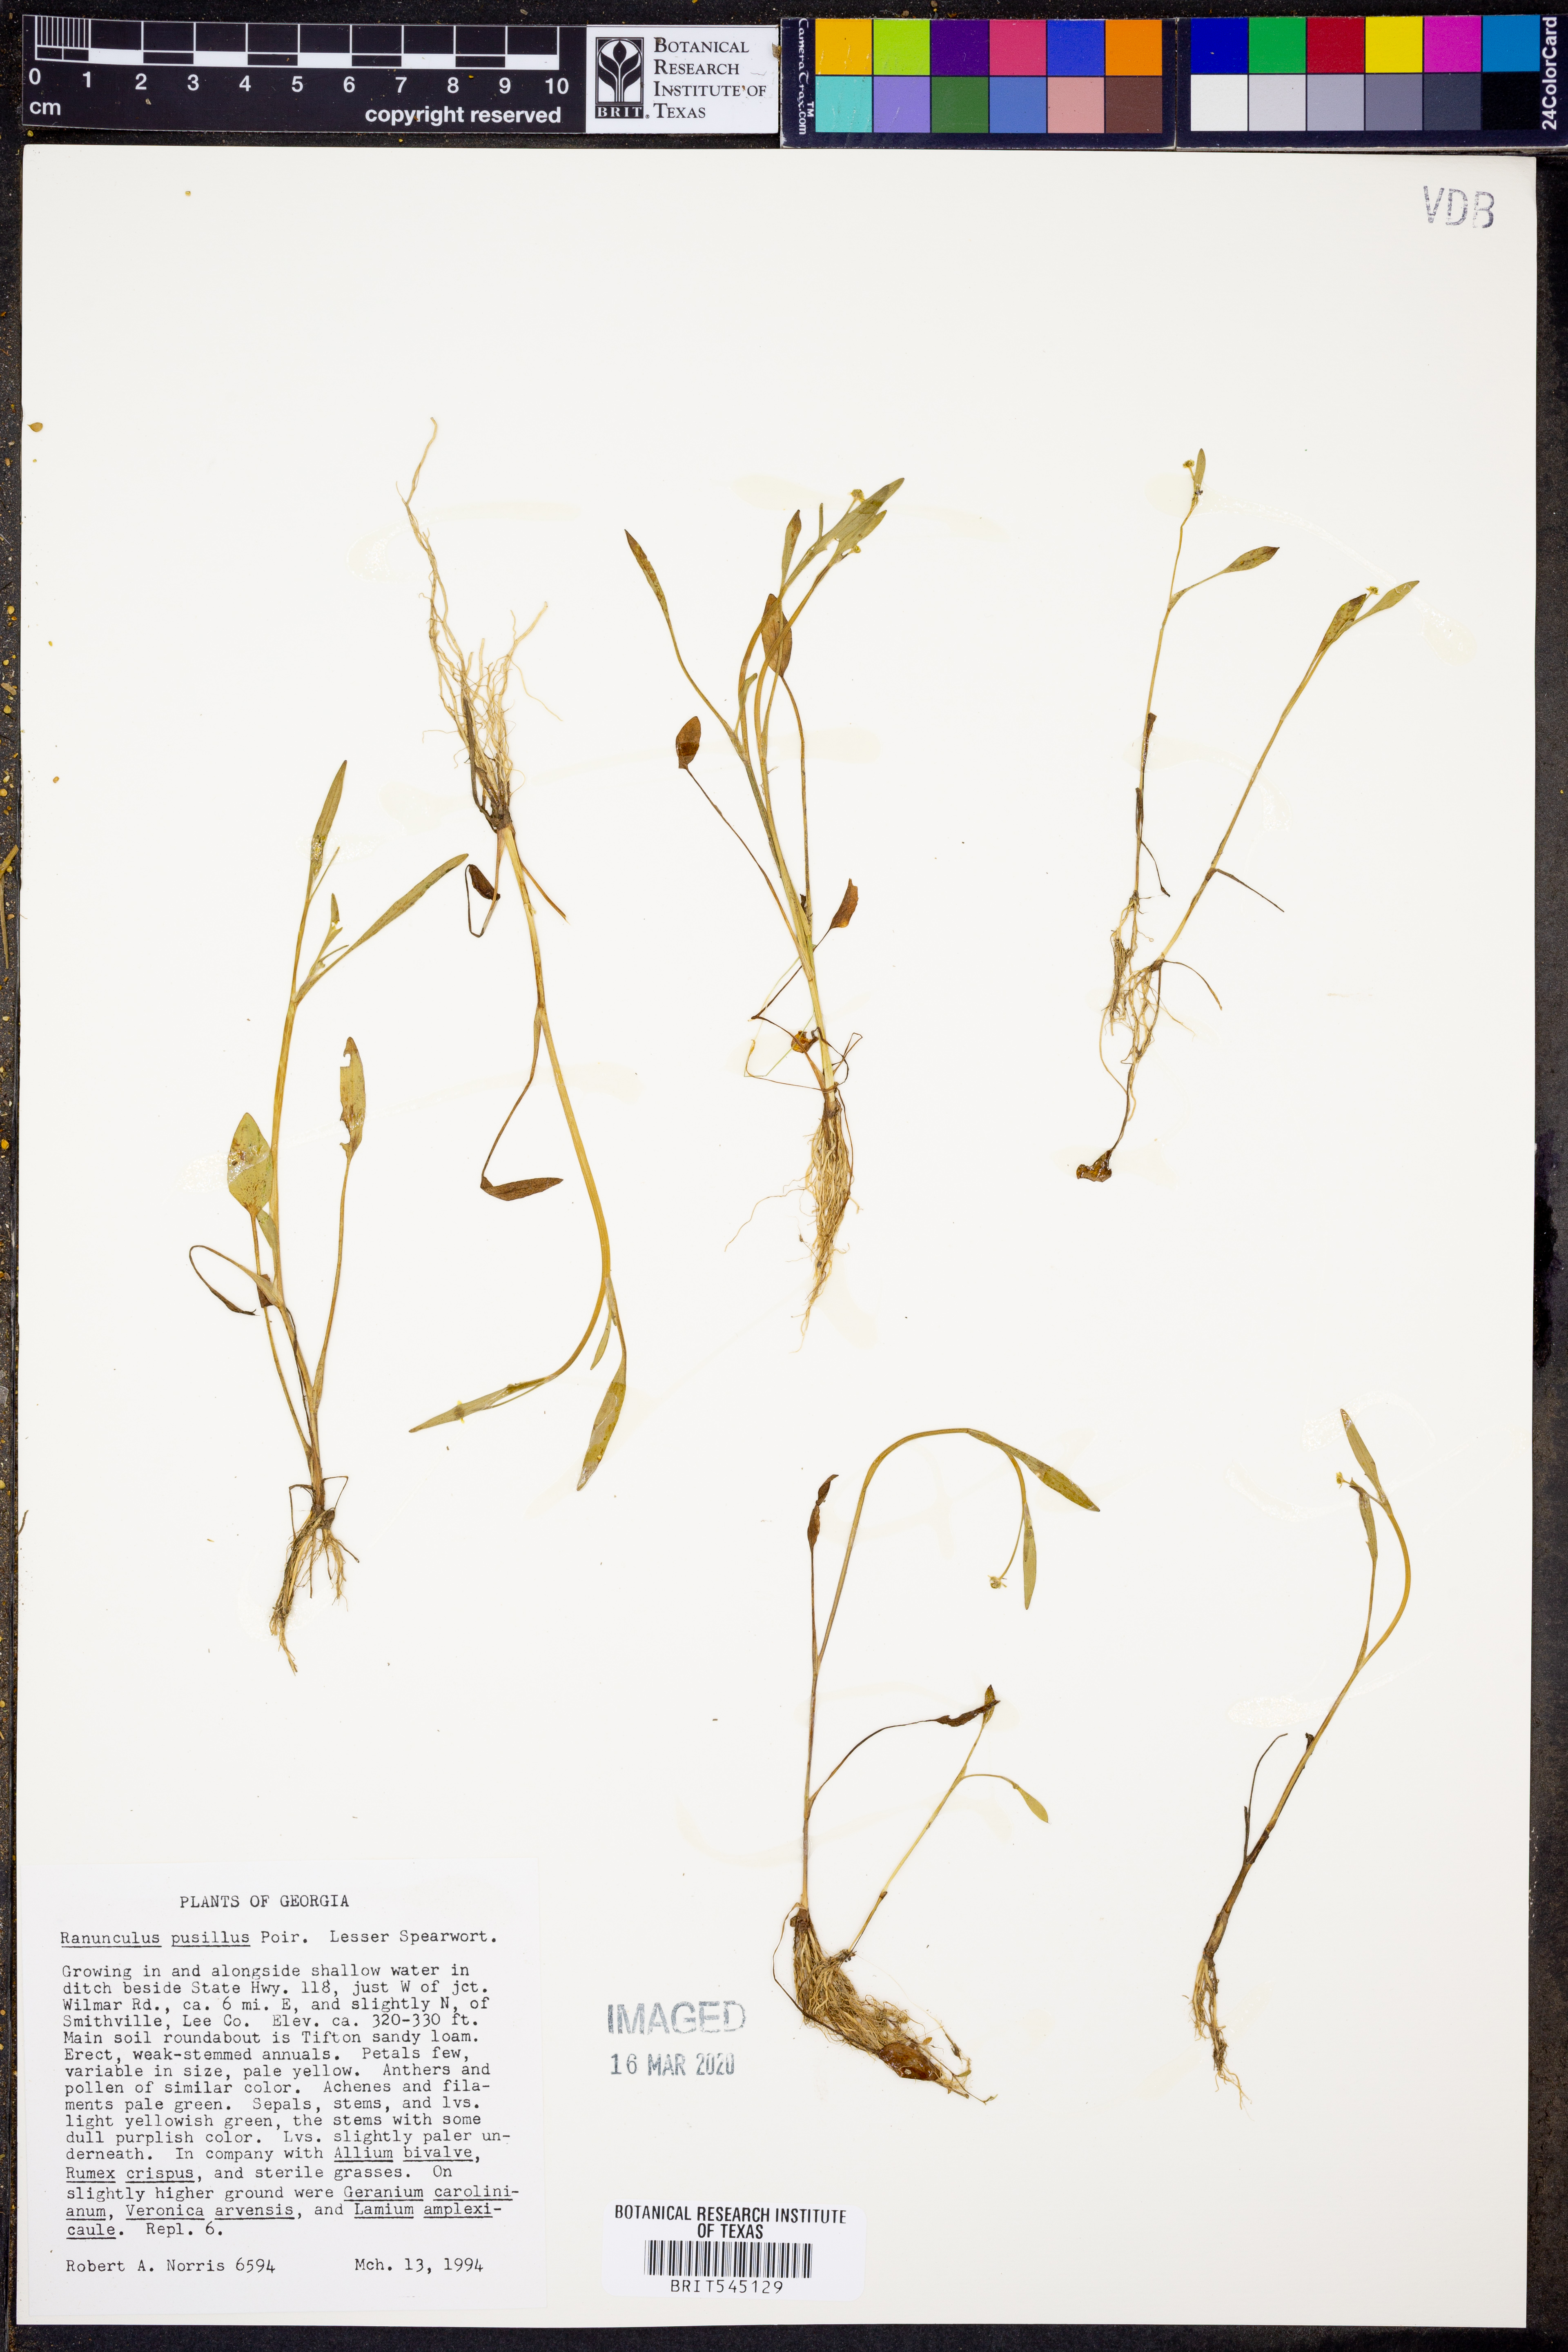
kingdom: Plantae
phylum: Tracheophyta
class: Magnoliopsida
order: Ranunculales
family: Ranunculaceae
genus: Ranunculus
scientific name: Ranunculus pusillus
